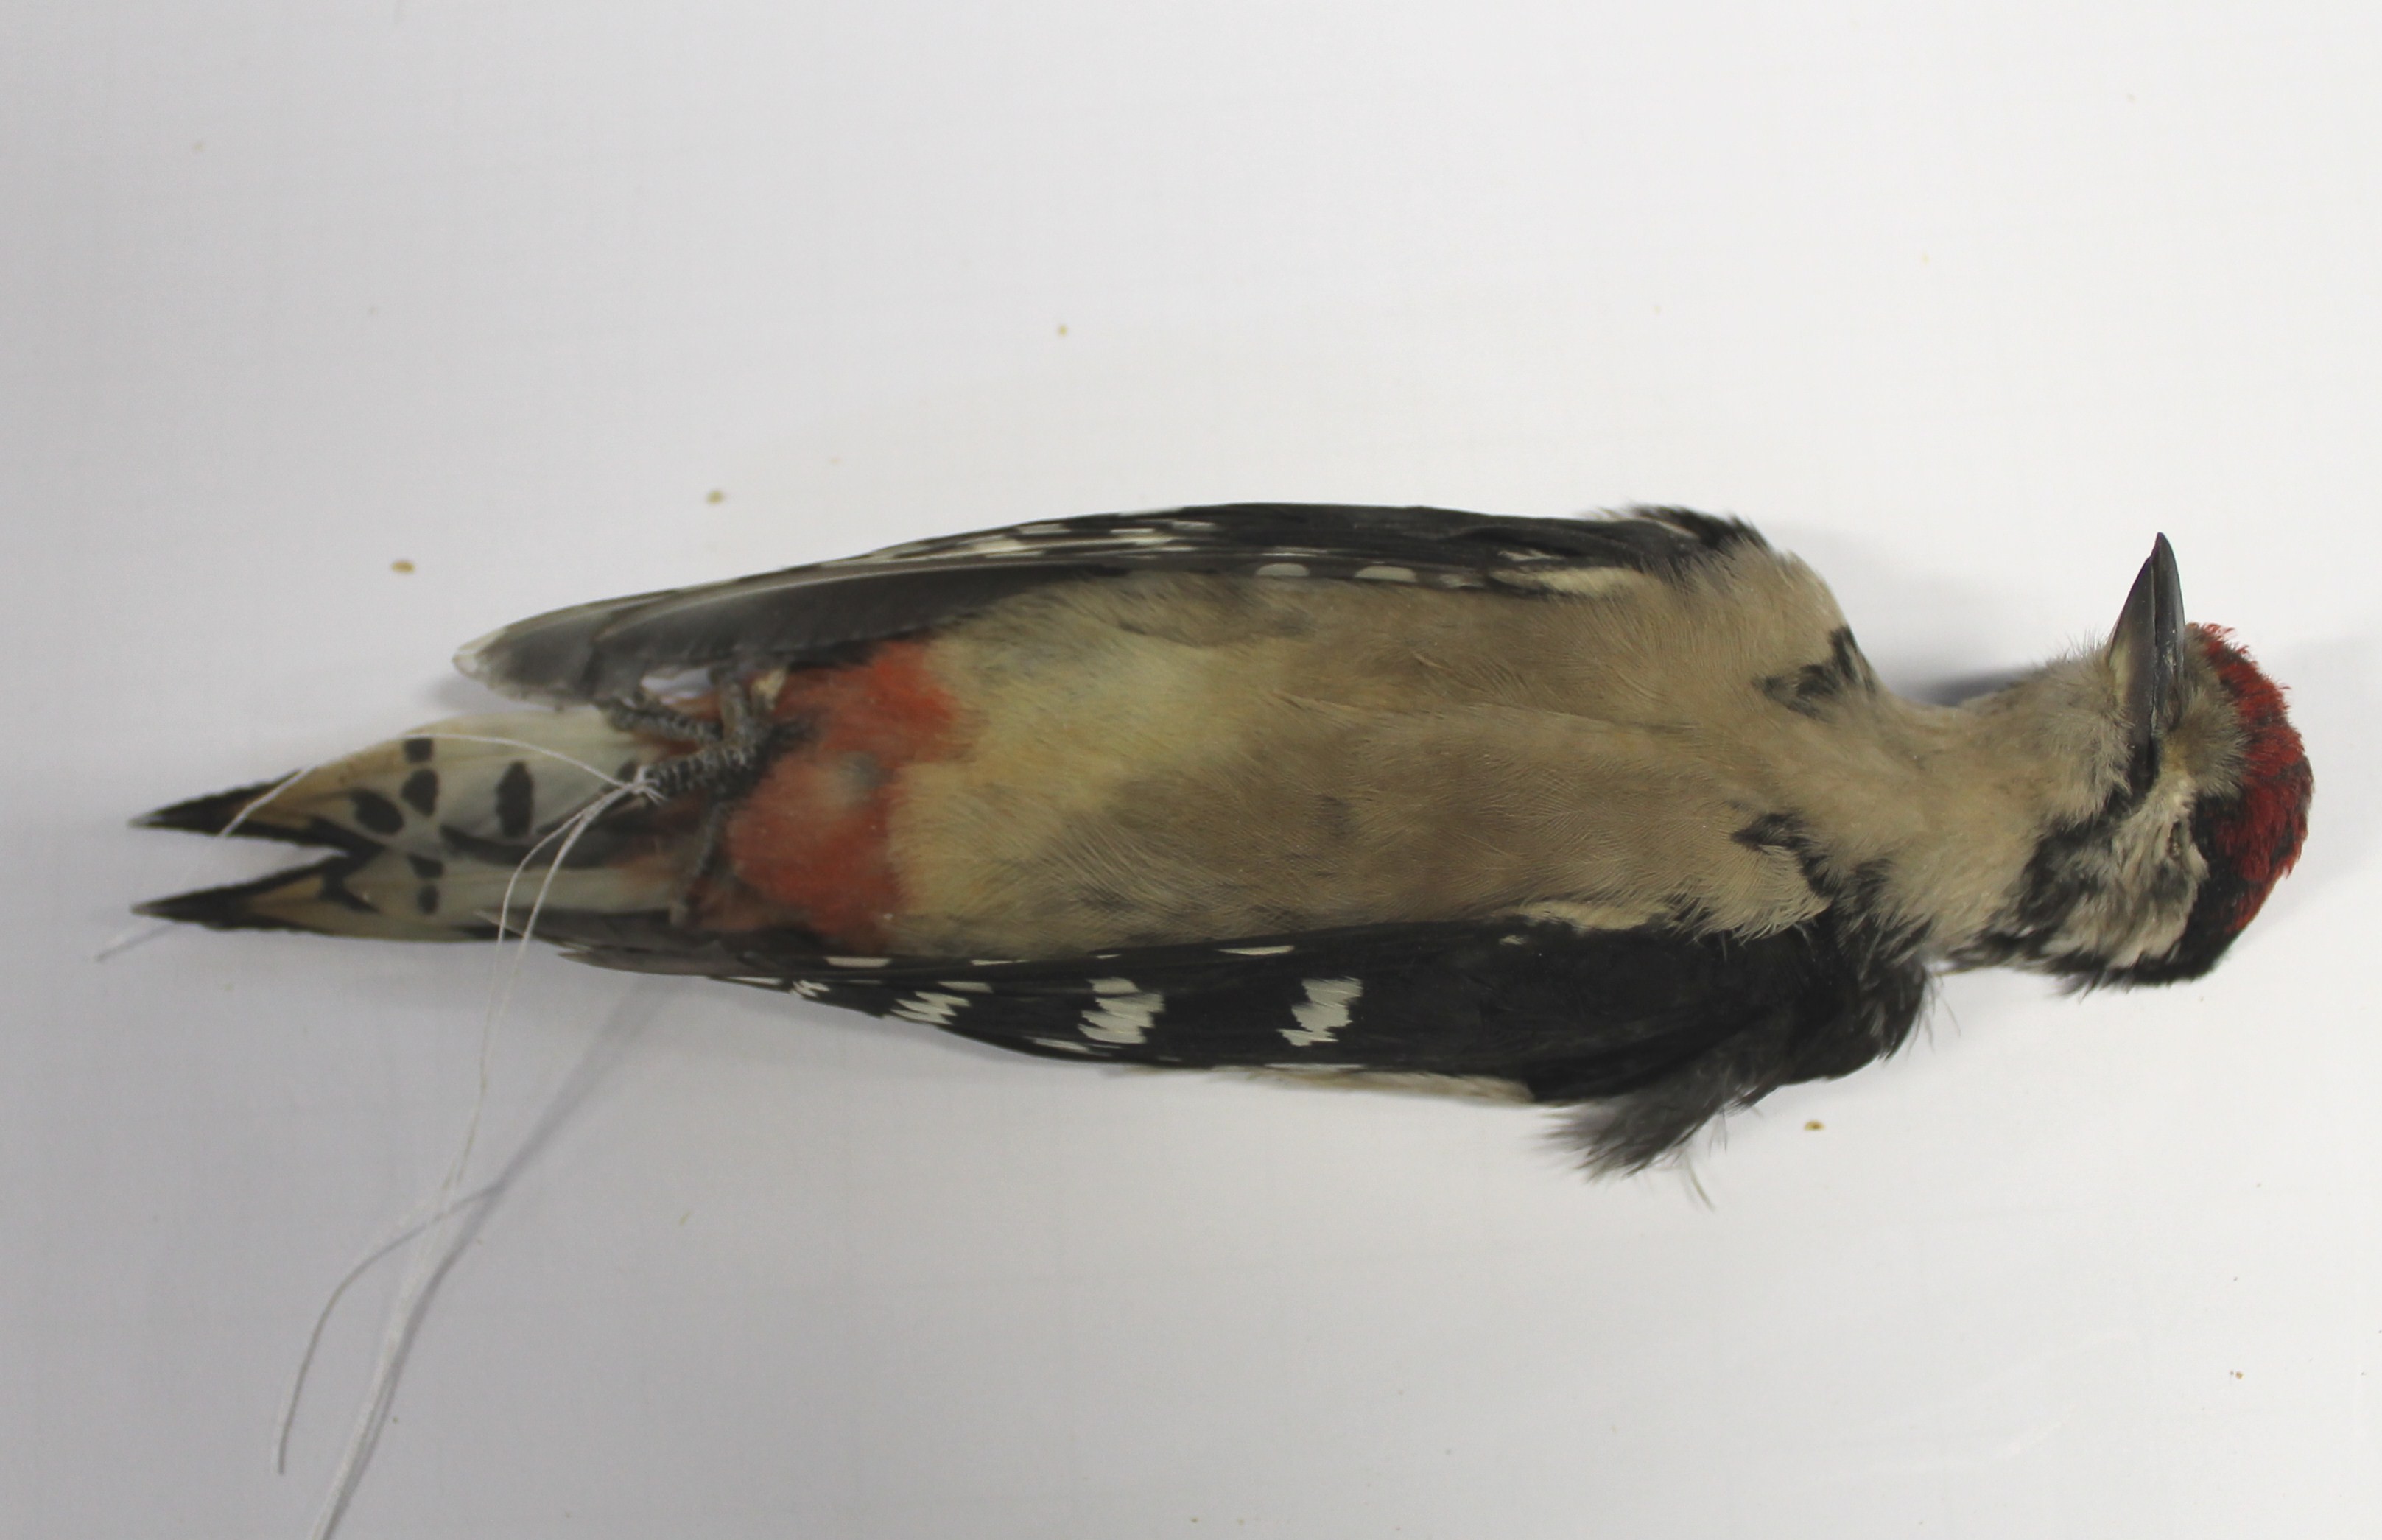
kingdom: Animalia
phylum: Chordata
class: Aves
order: Piciformes
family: Picidae
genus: Dendrocopos
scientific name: Dendrocopos major
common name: Great spotted woodpecker
